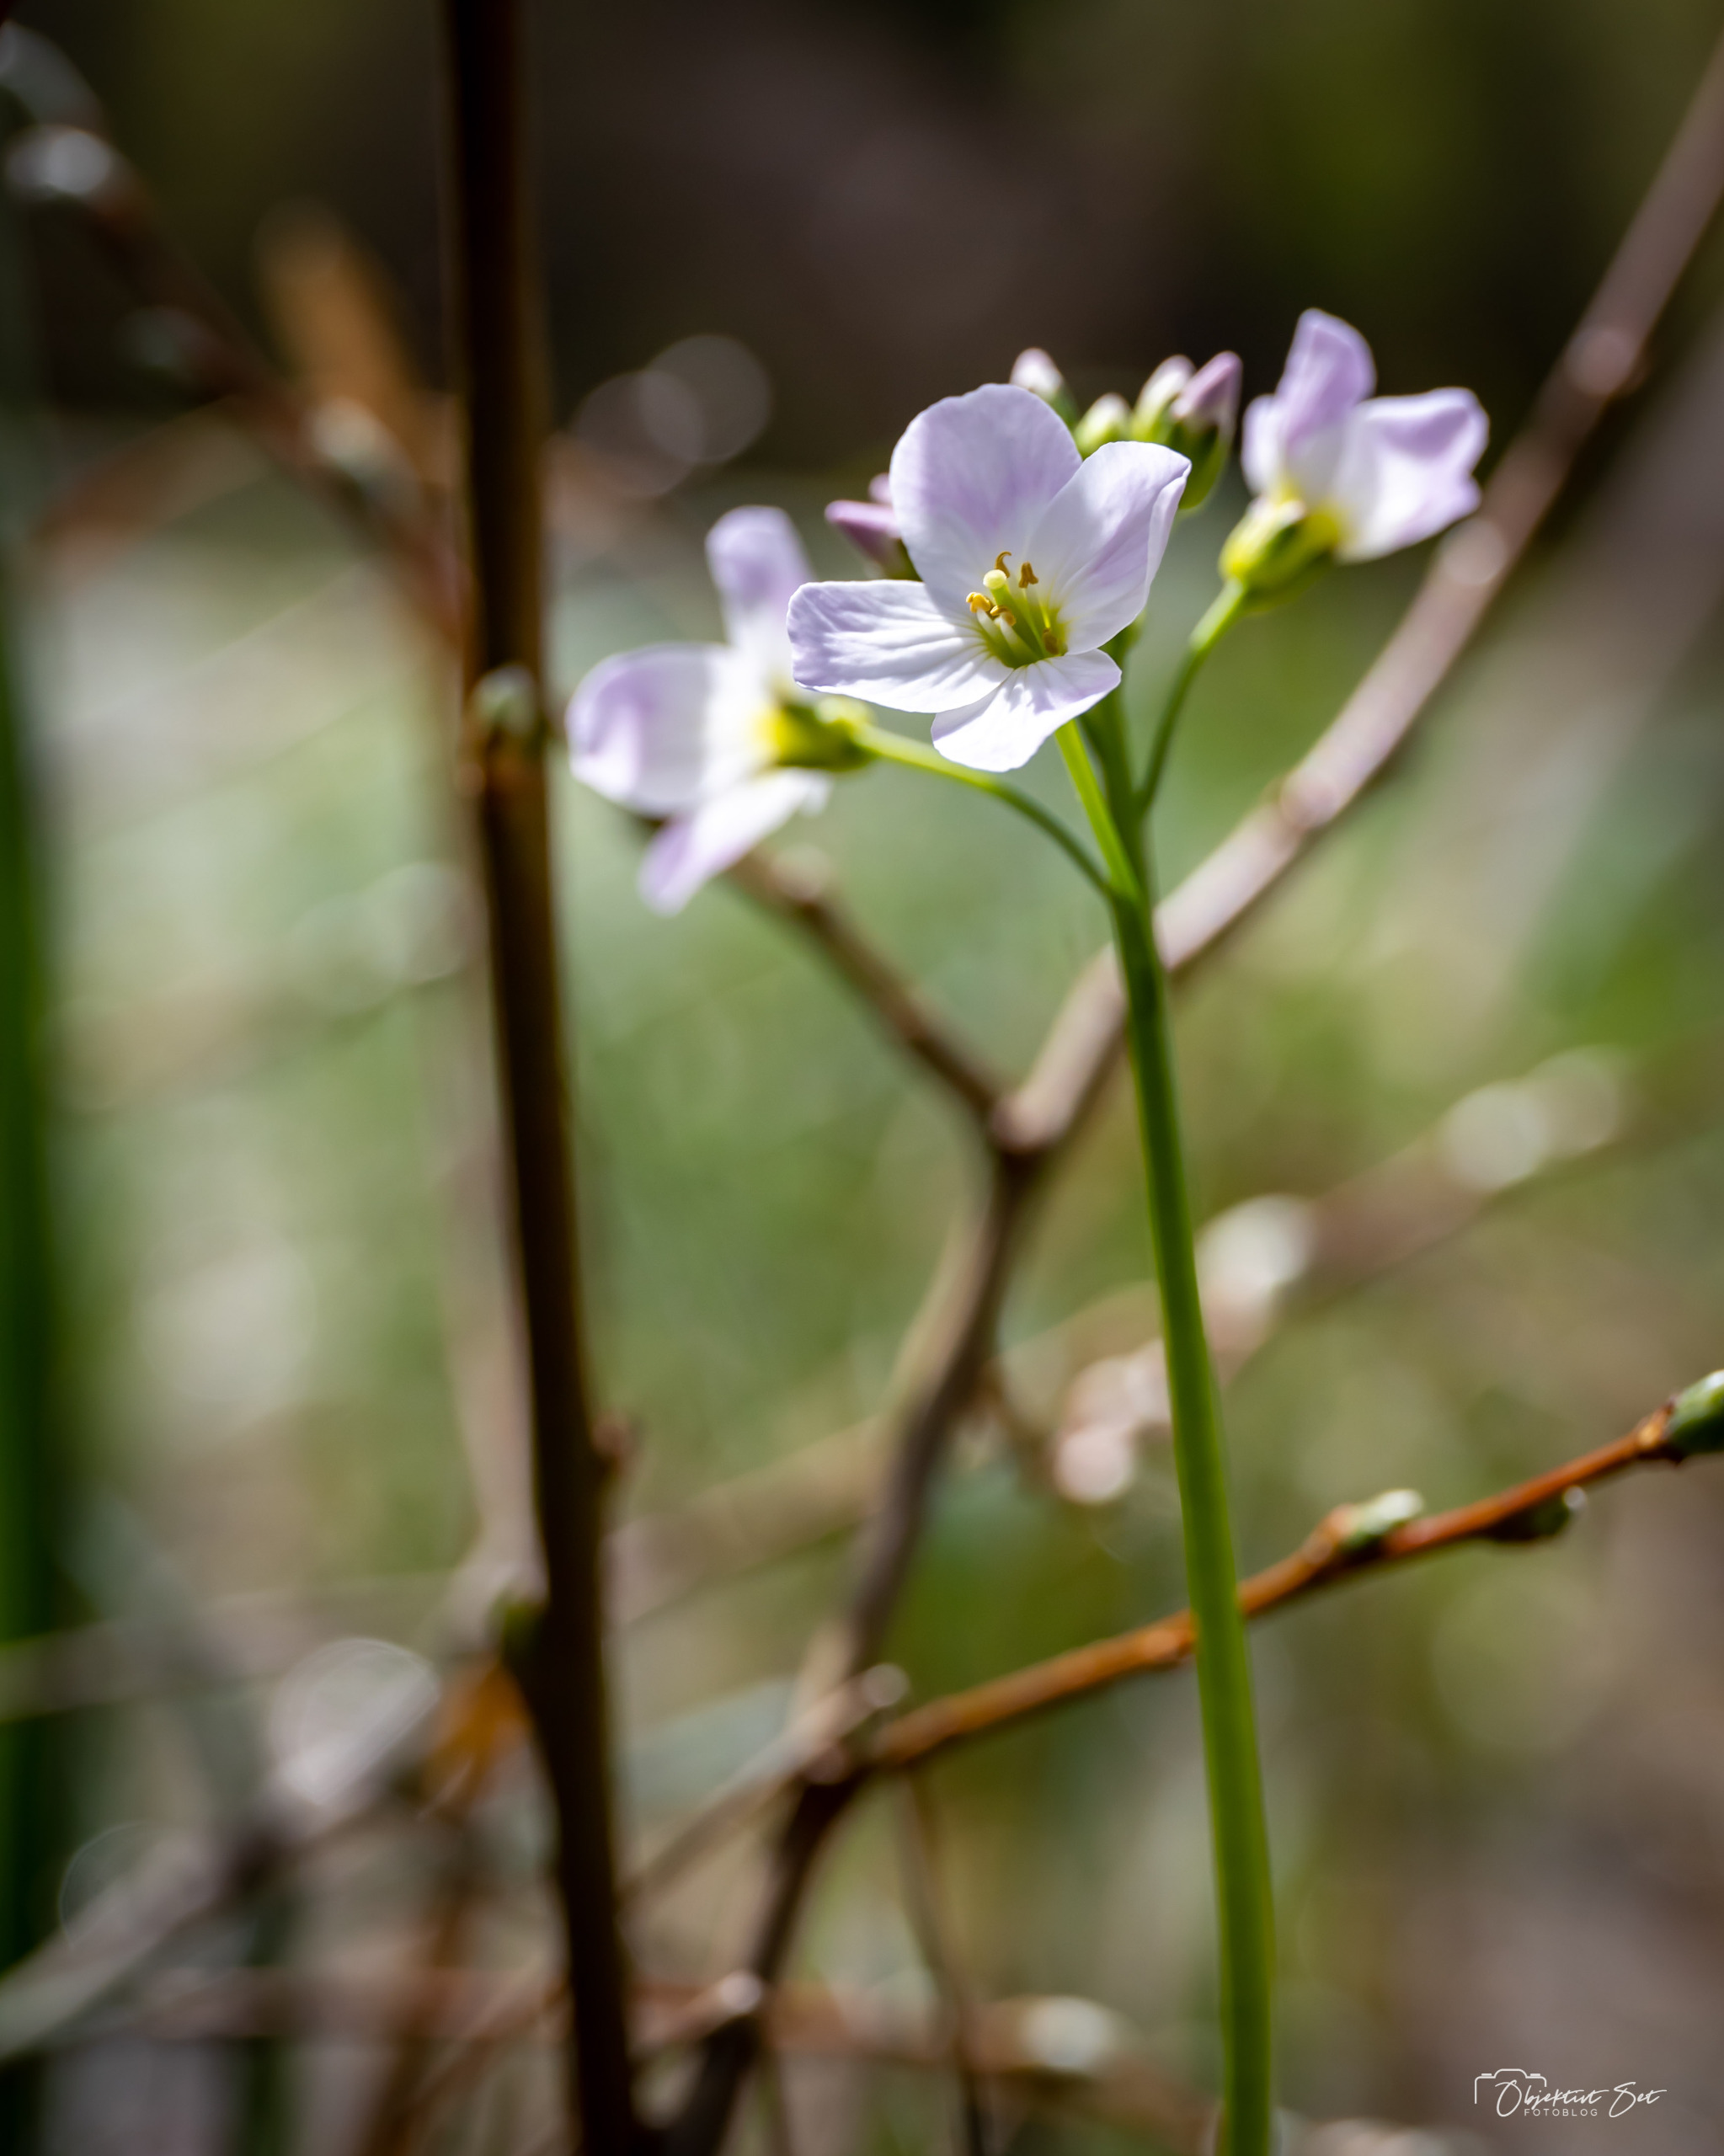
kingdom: Plantae
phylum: Tracheophyta
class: Magnoliopsida
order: Brassicales
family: Brassicaceae
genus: Cardamine
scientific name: Cardamine pratensis
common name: Engkarse
